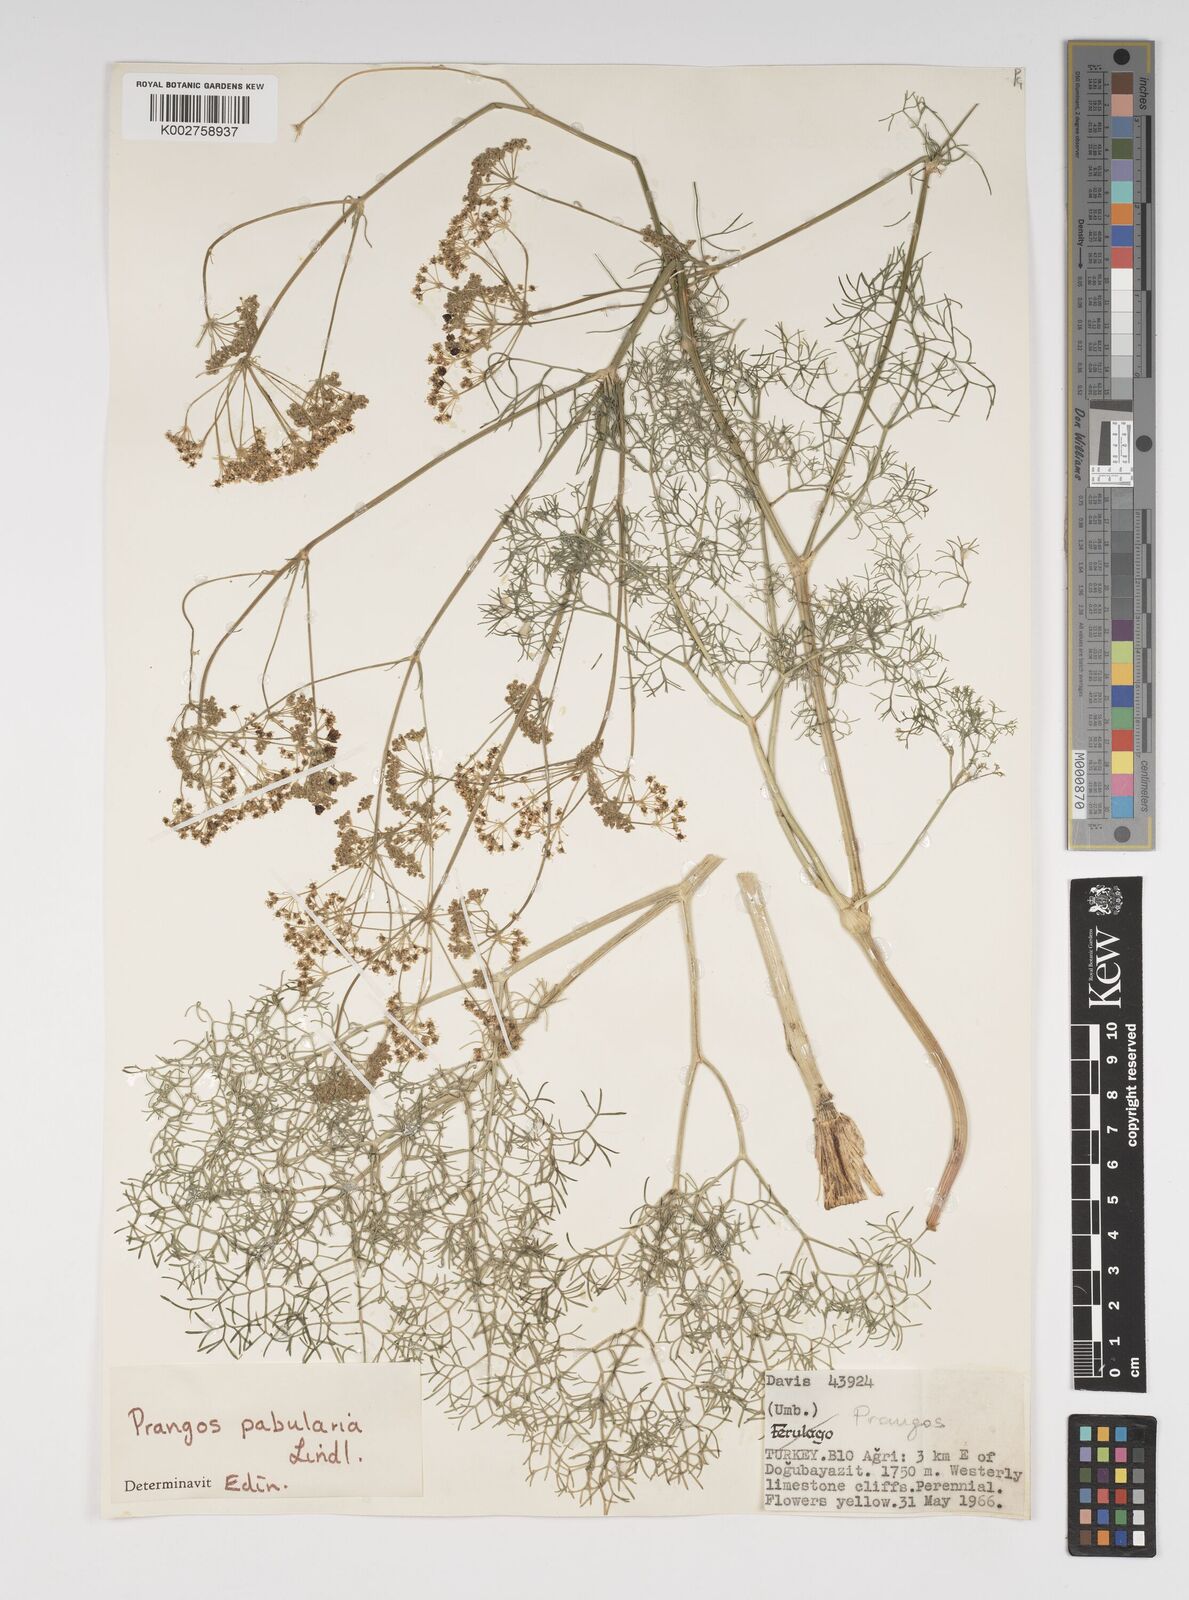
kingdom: Plantae
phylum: Tracheophyta
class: Magnoliopsida
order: Apiales
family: Apiaceae
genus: Prangos
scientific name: Prangos pabularia
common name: Yugan
